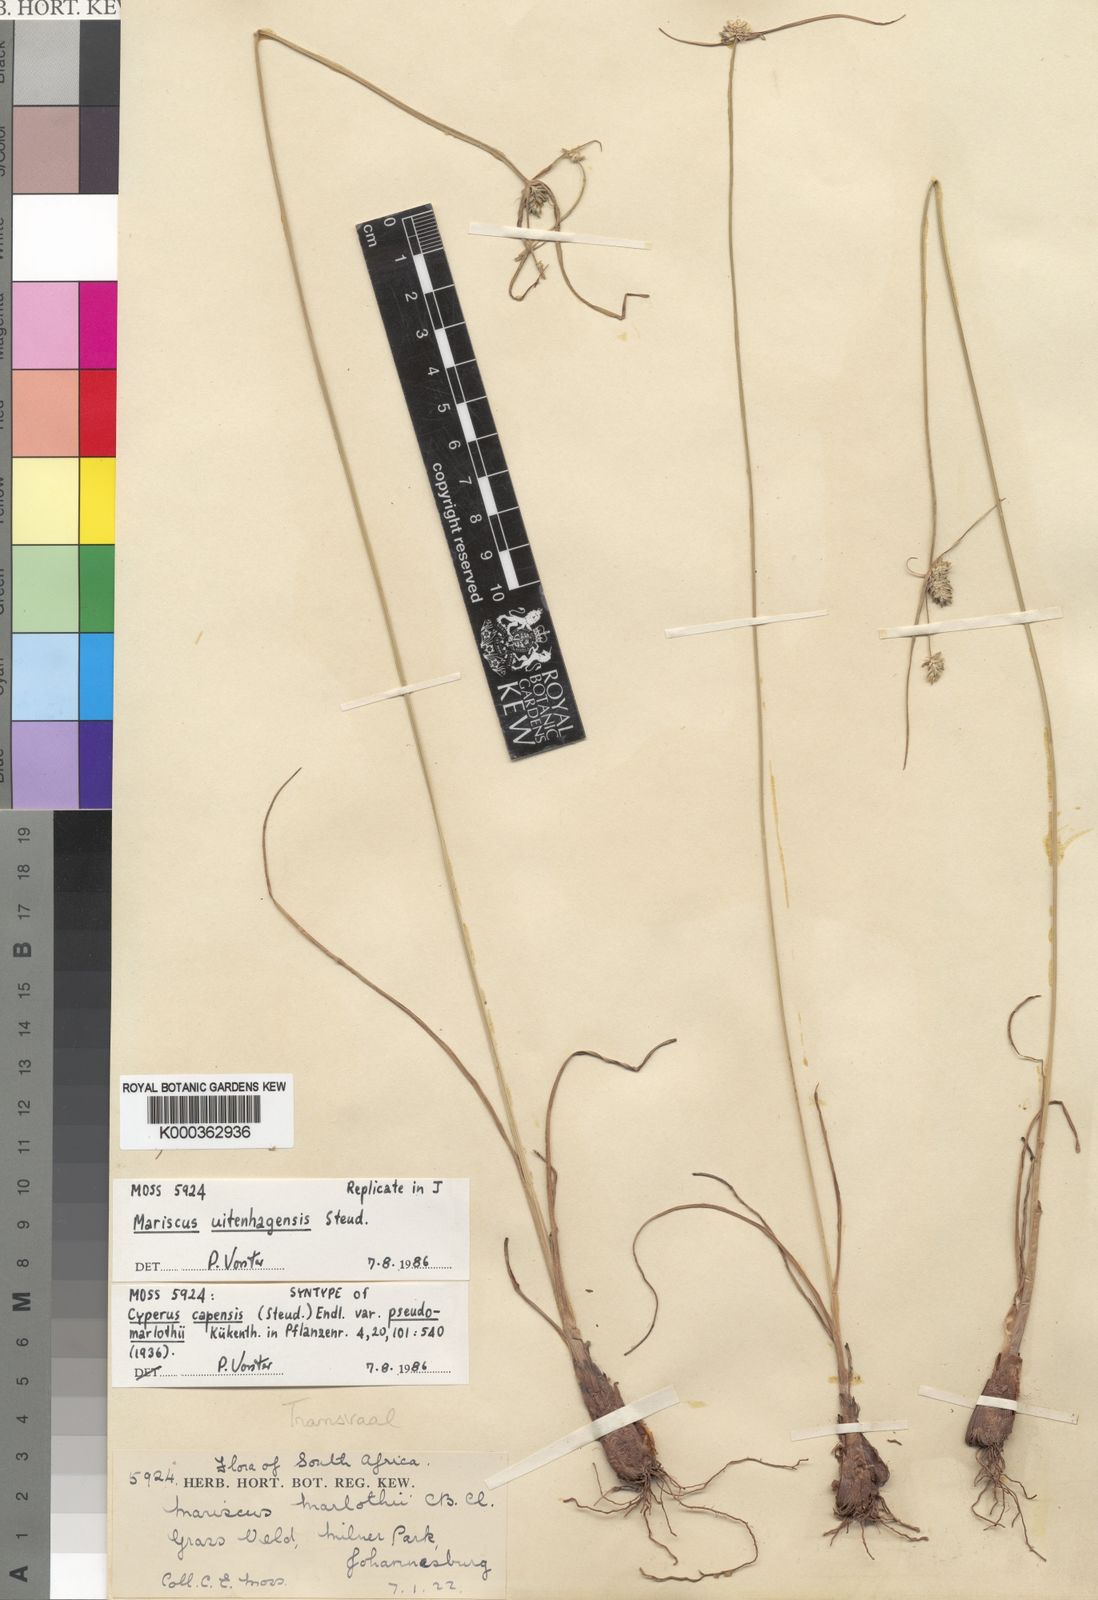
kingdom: Plantae
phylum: Tracheophyta
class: Liliopsida
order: Poales
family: Cyperaceae
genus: Cyperus
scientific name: Cyperus capensis
